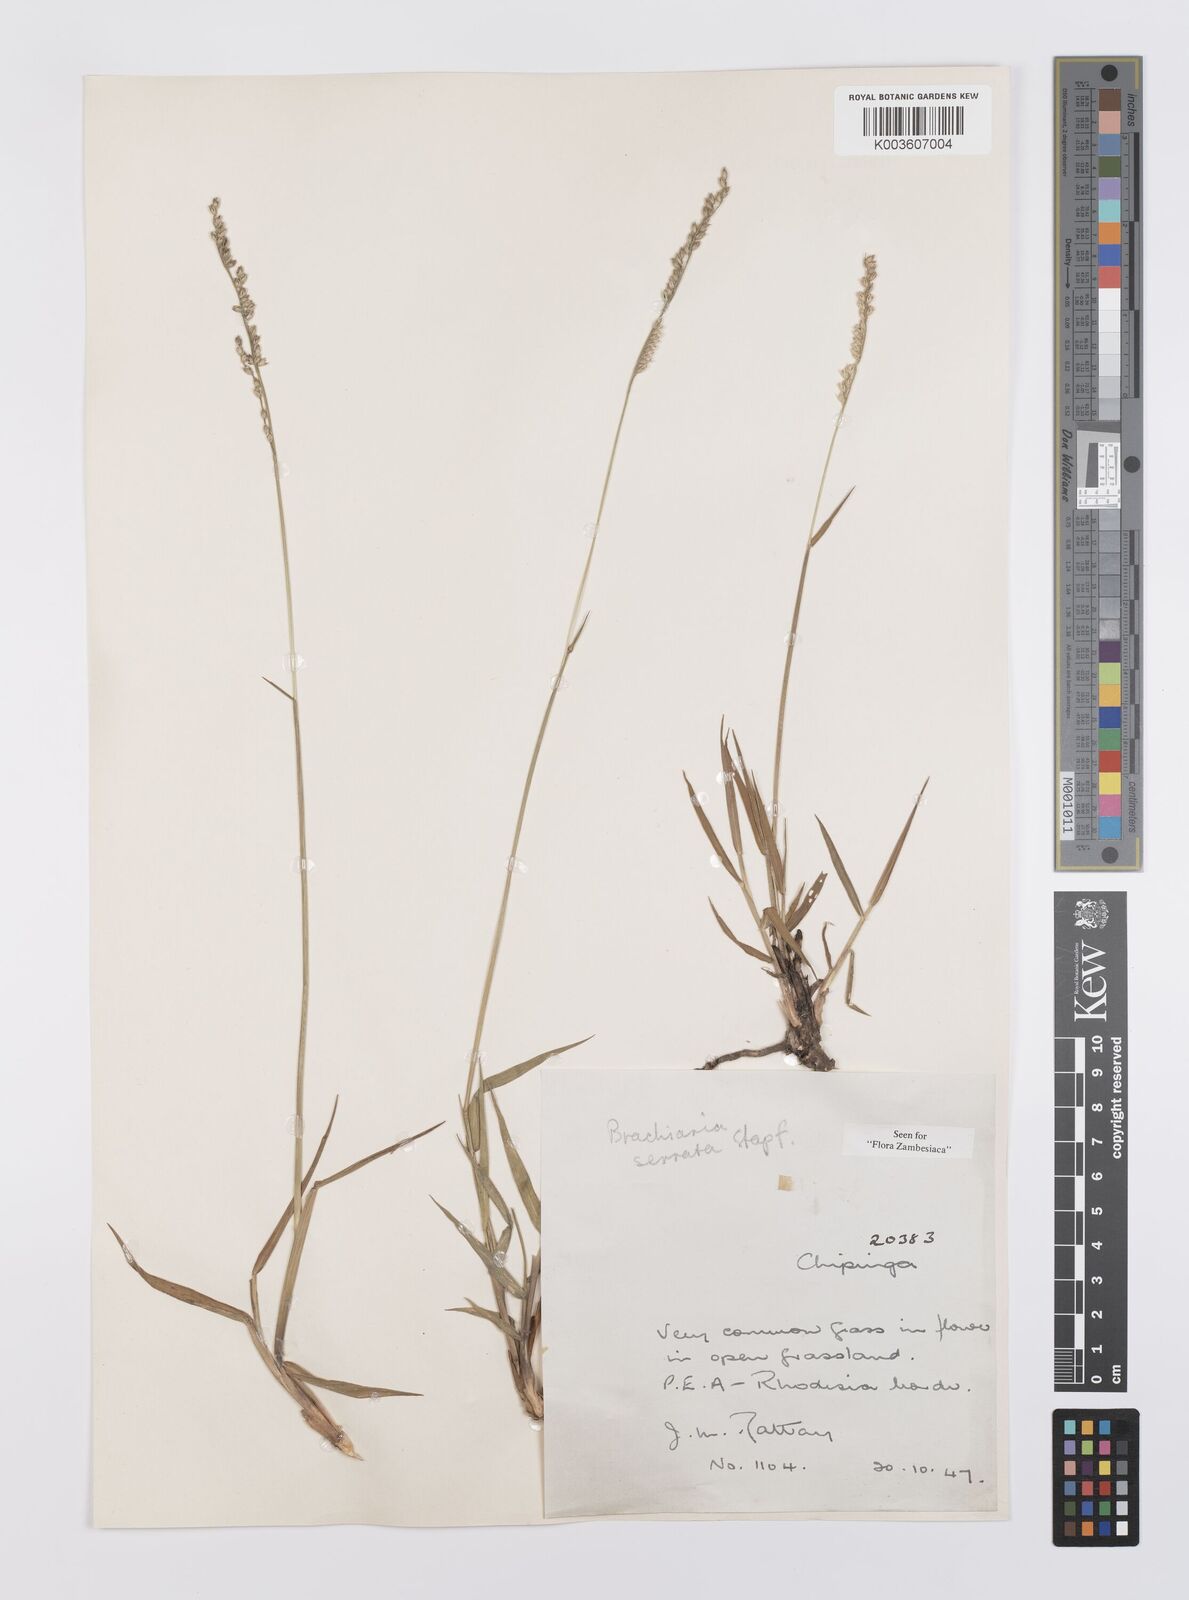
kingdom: Plantae
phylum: Tracheophyta
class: Liliopsida
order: Poales
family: Poaceae
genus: Urochloa
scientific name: Urochloa serrata
